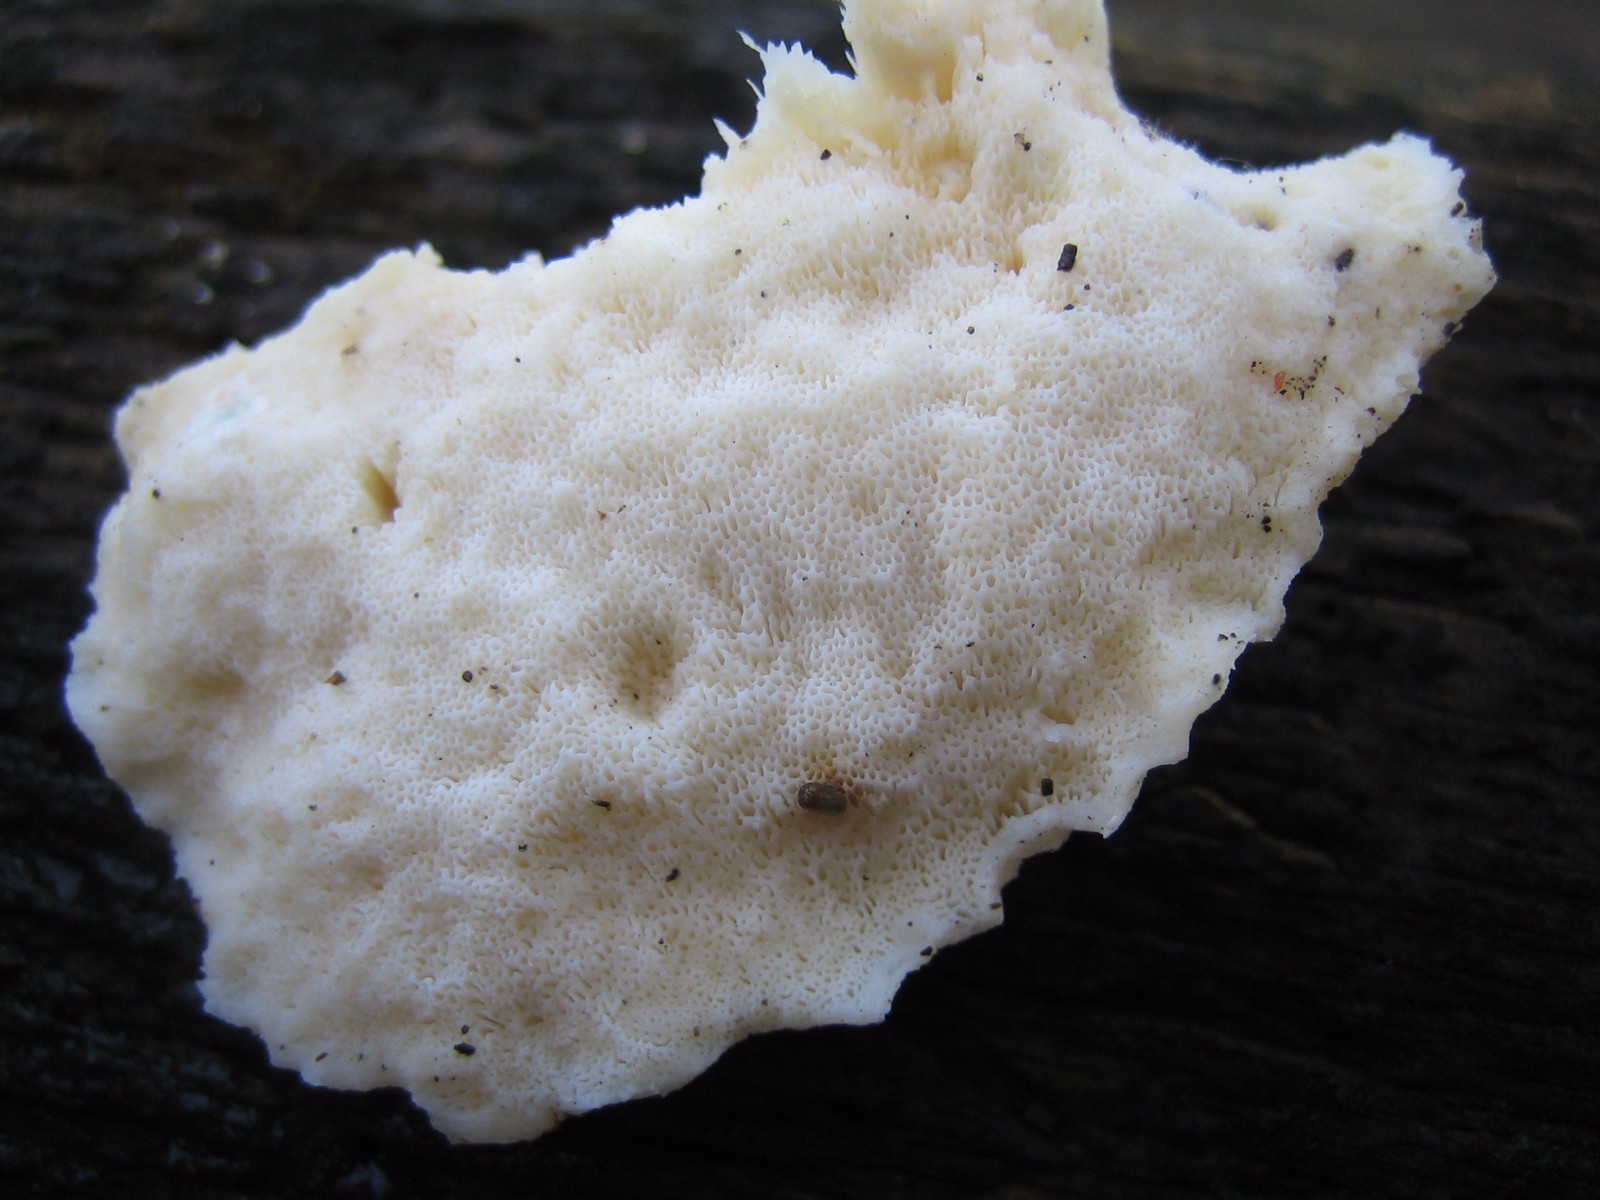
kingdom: Fungi
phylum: Basidiomycota
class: Agaricomycetes
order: Polyporales
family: Incrustoporiaceae
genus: Tyromyces
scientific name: Tyromyces lacteus
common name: mælkehvid kødporesvamp
